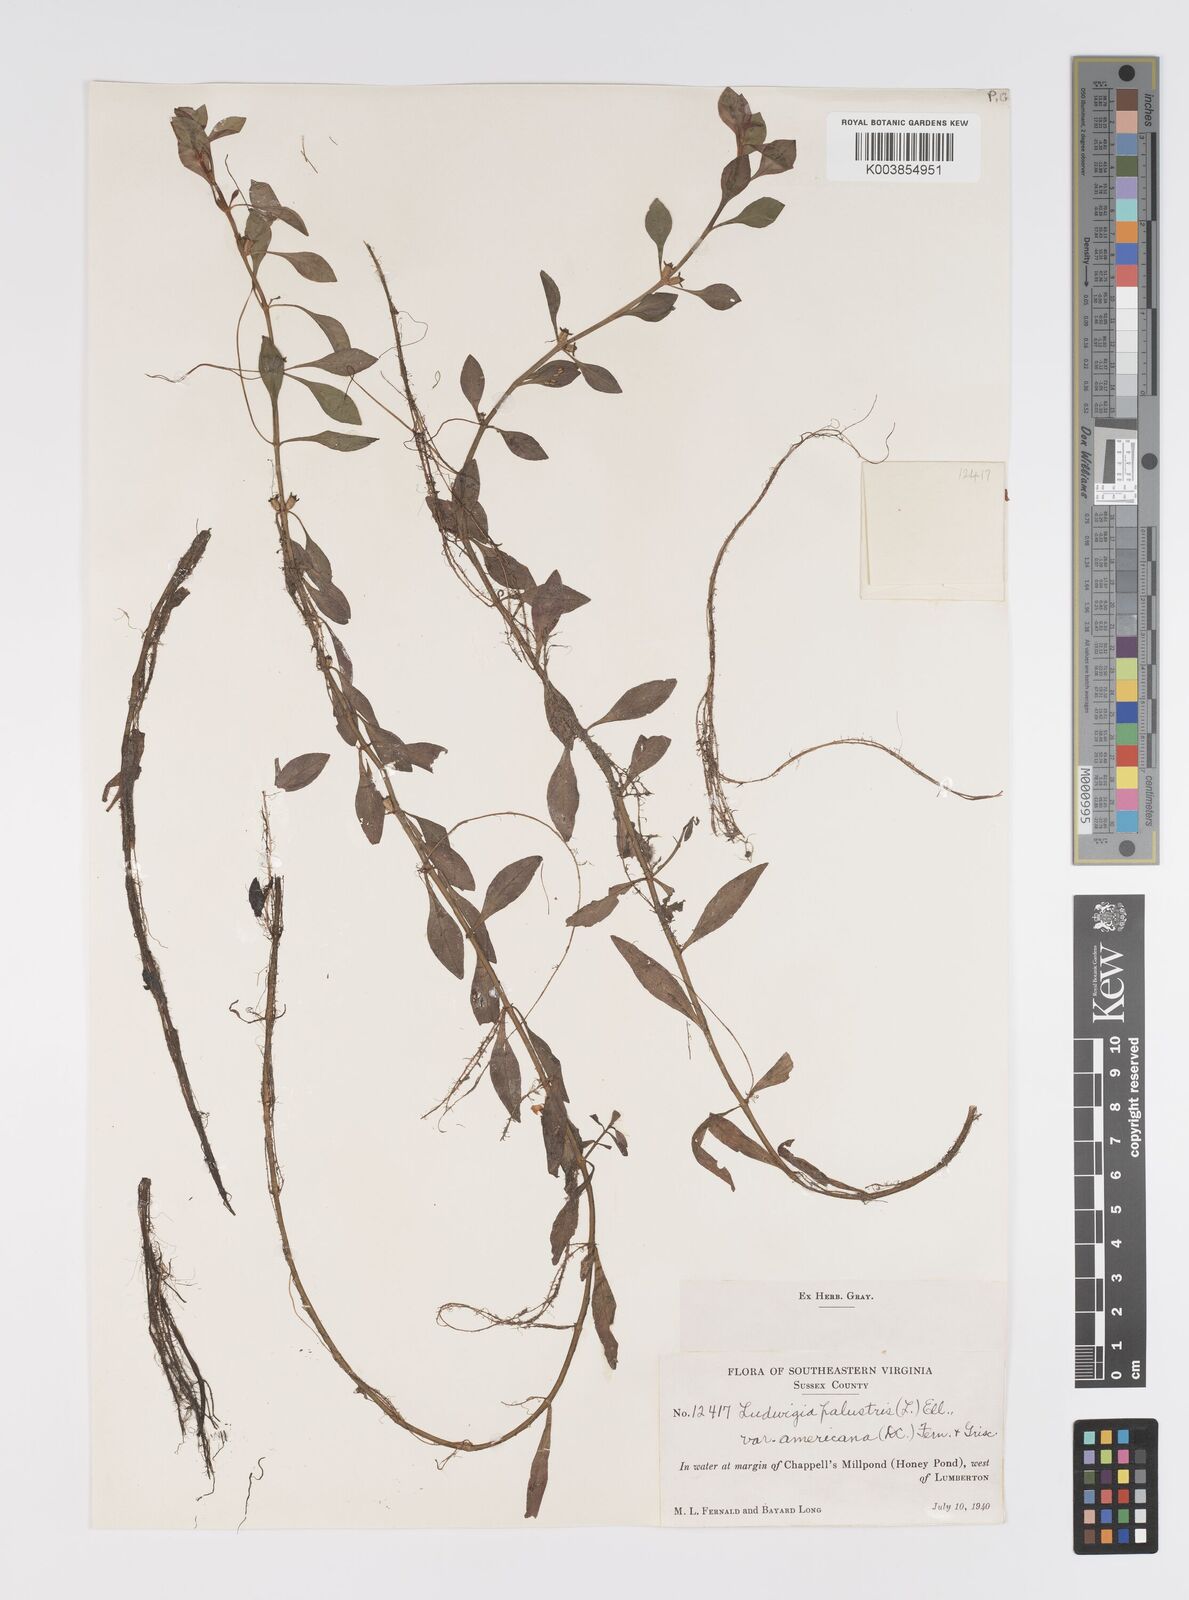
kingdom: Plantae
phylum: Tracheophyta
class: Magnoliopsida
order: Myrtales
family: Onagraceae
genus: Ludwigia
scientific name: Ludwigia palustris
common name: Hampshire-purslane
